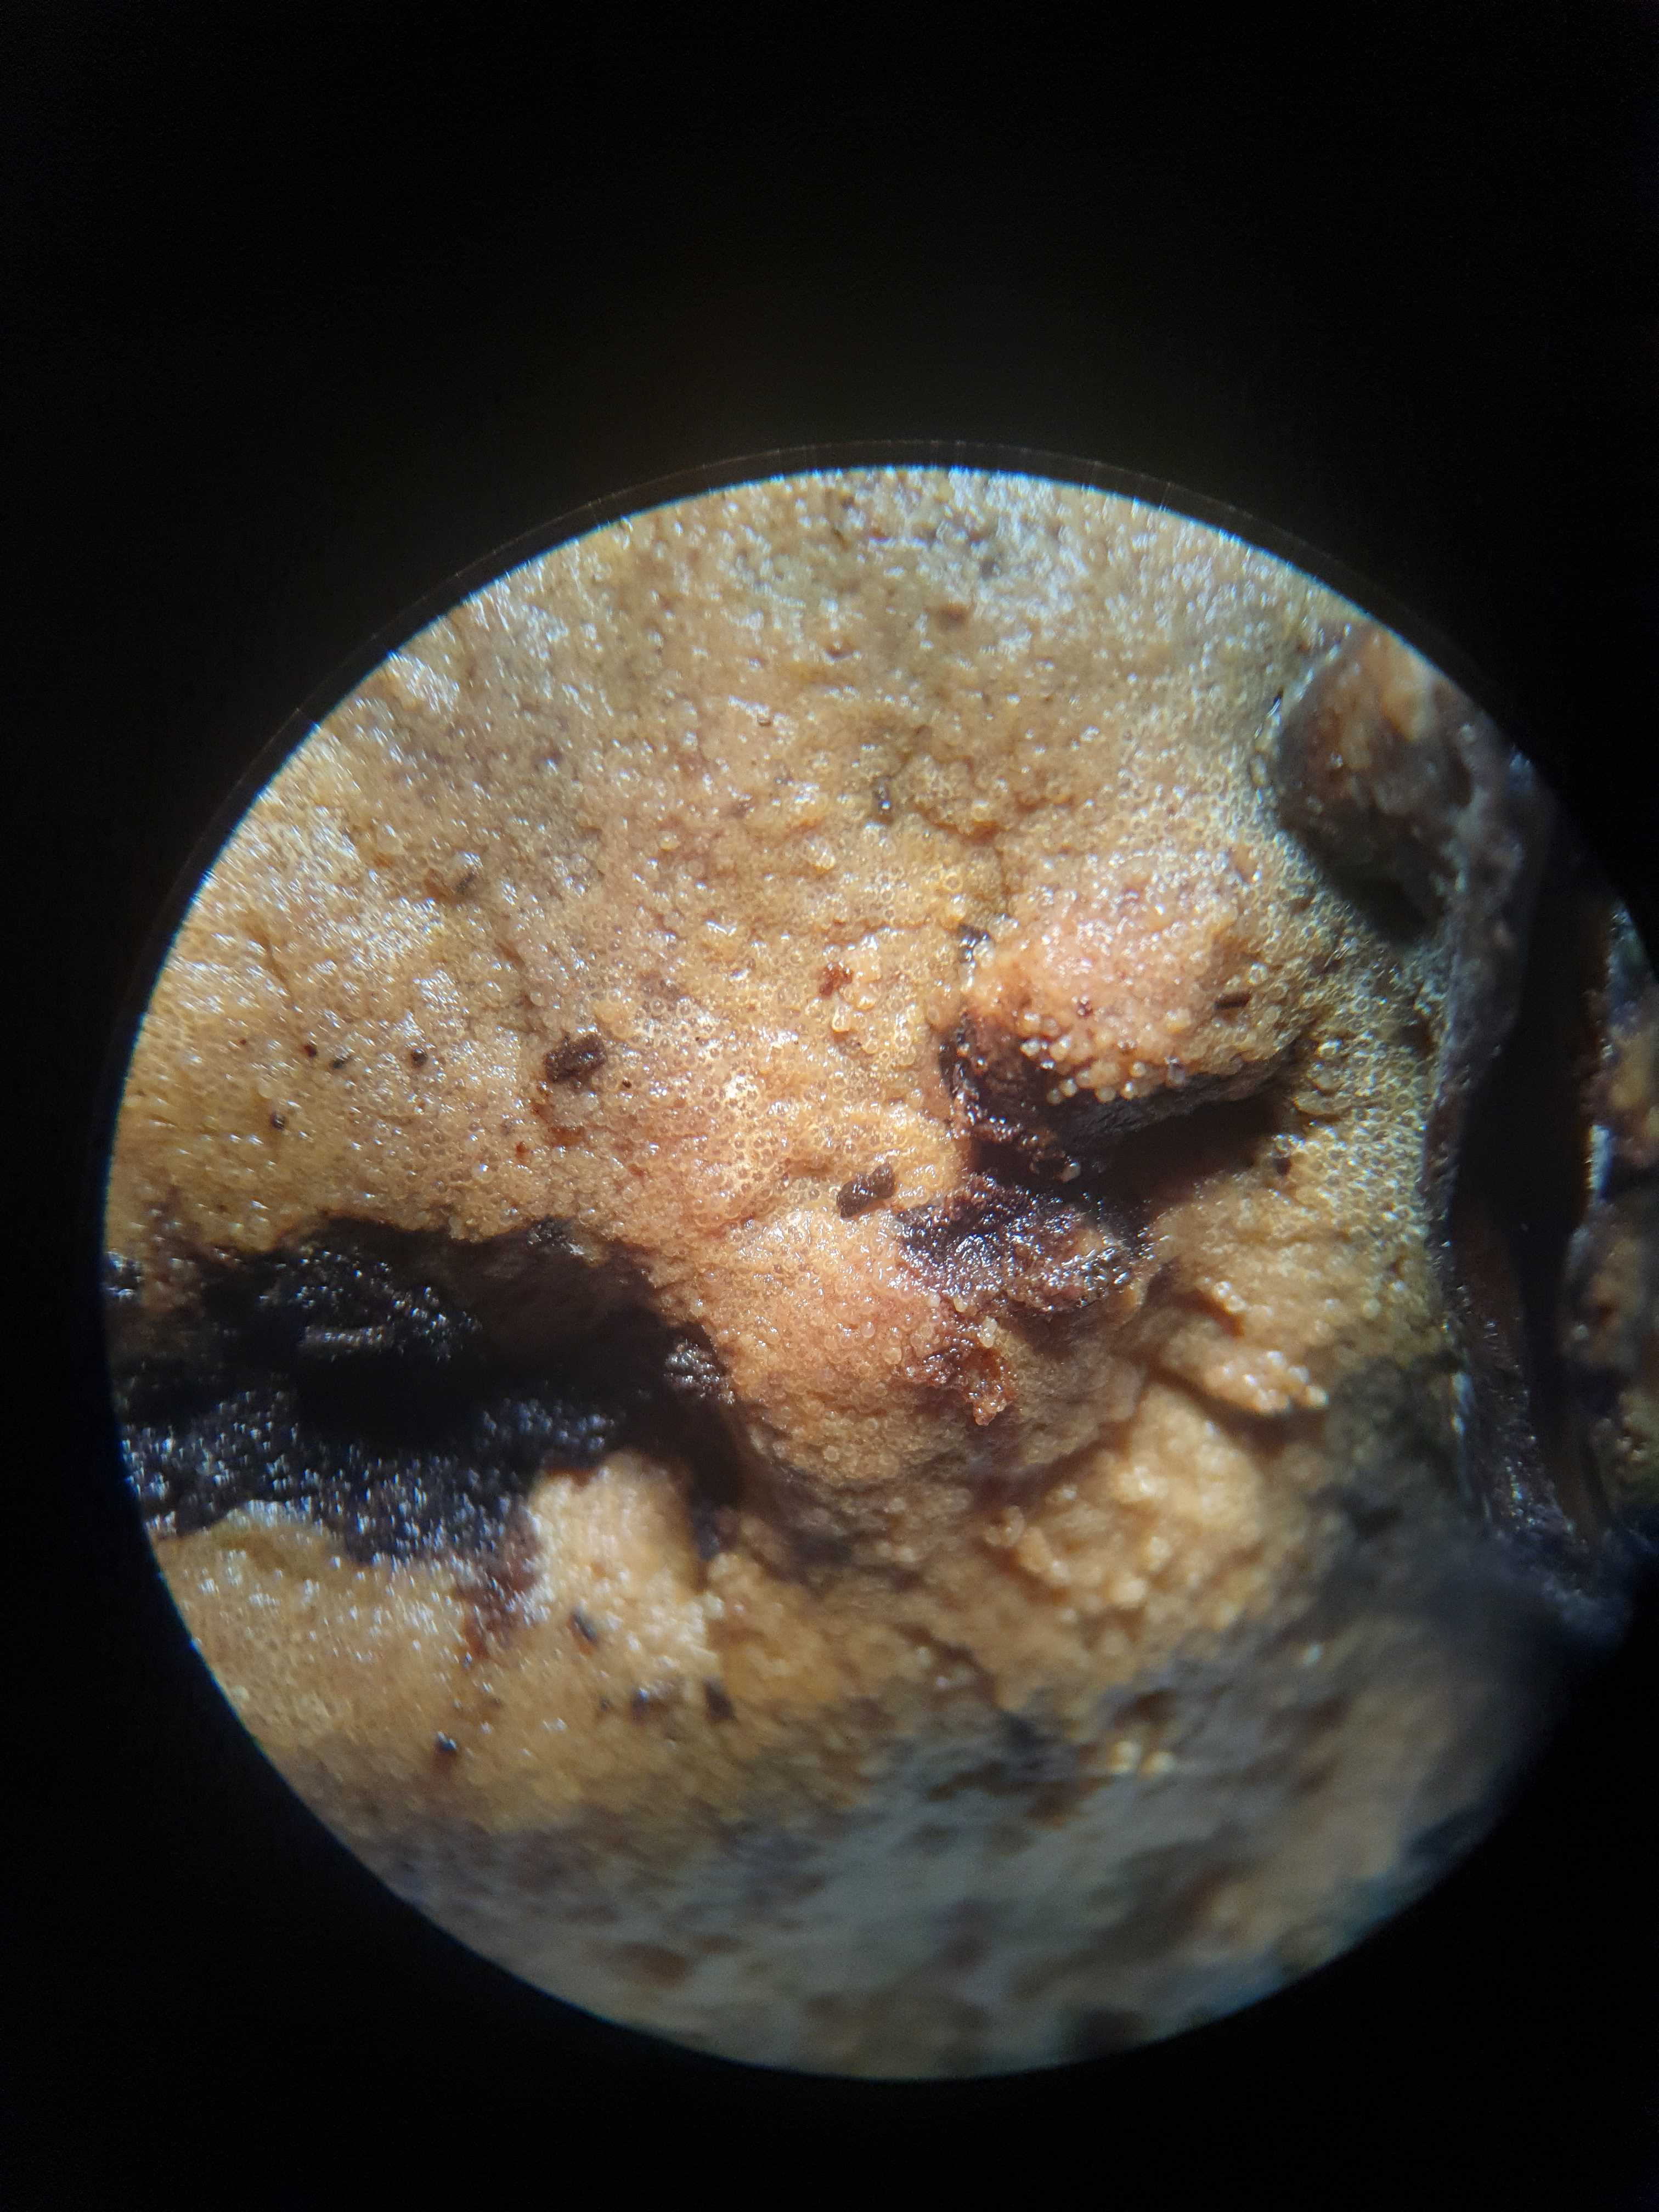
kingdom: Fungi
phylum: Ascomycota
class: Sordariomycetes
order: Hypocreales
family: Hypocreaceae
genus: Protocrea
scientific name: Protocrea farinosa
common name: krystalpore-kødkerne
